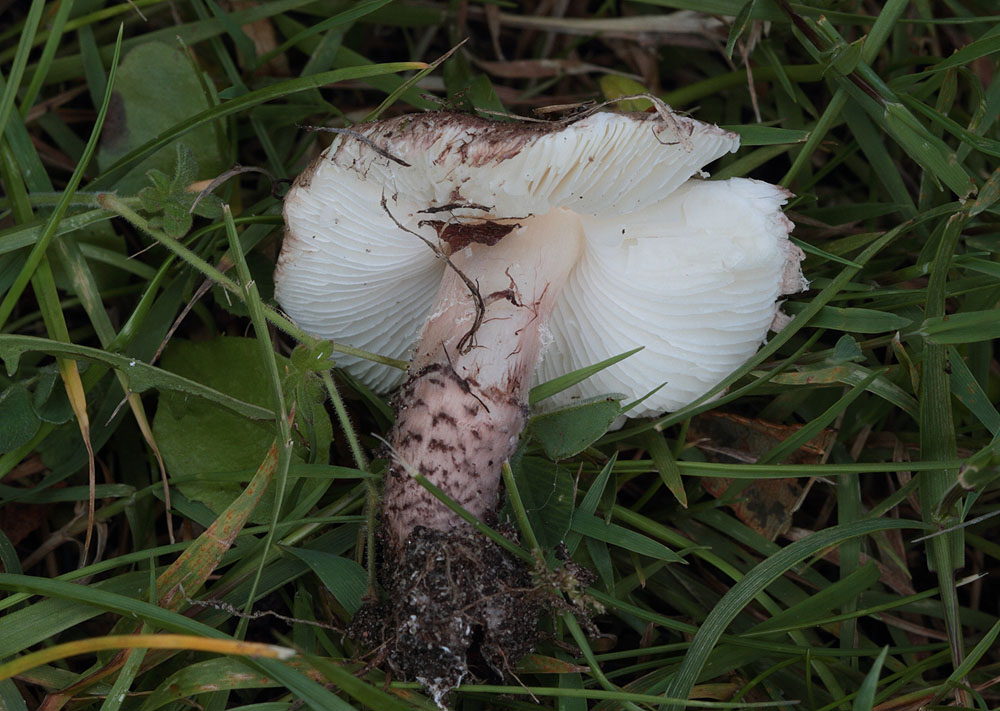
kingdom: Fungi
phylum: Basidiomycota
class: Agaricomycetes
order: Agaricales
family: Agaricaceae
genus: Lepiota
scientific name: Lepiota brunneoincarnata
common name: brunrød parasolhat
